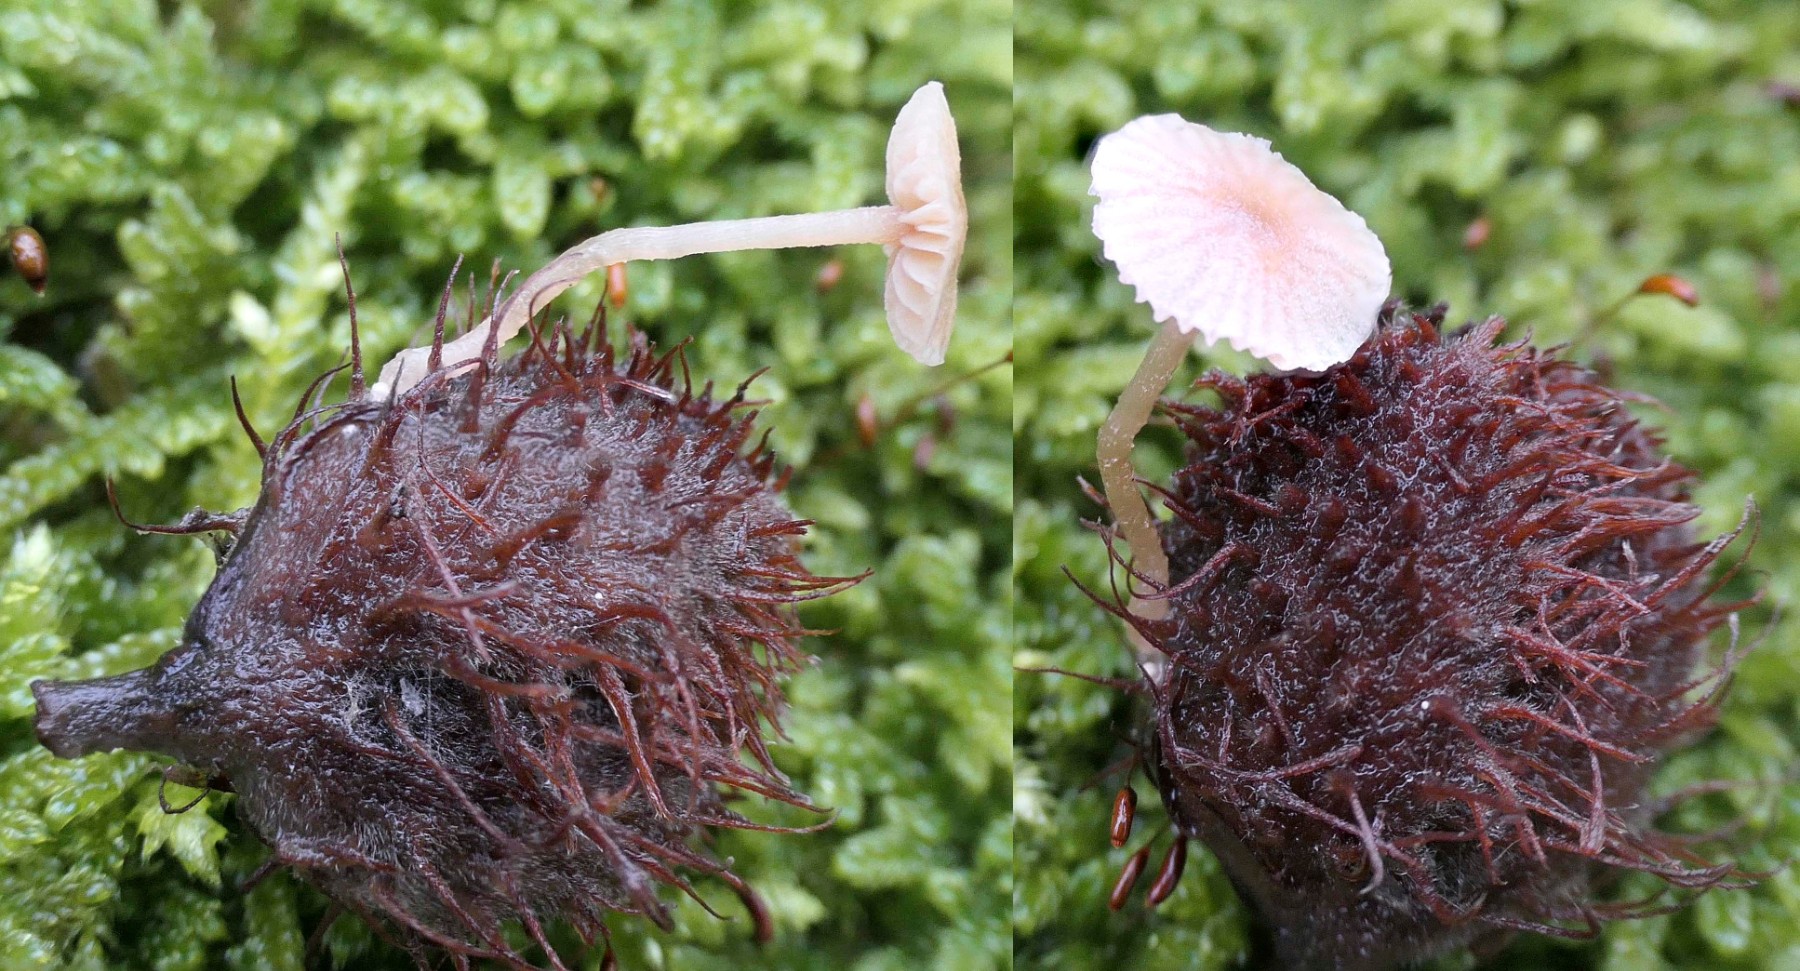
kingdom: Fungi
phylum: Basidiomycota
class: Agaricomycetes
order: Agaricales
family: Tubariaceae
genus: Flammulaster
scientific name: Flammulaster carpophilus
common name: blegrosa grynskælhat
